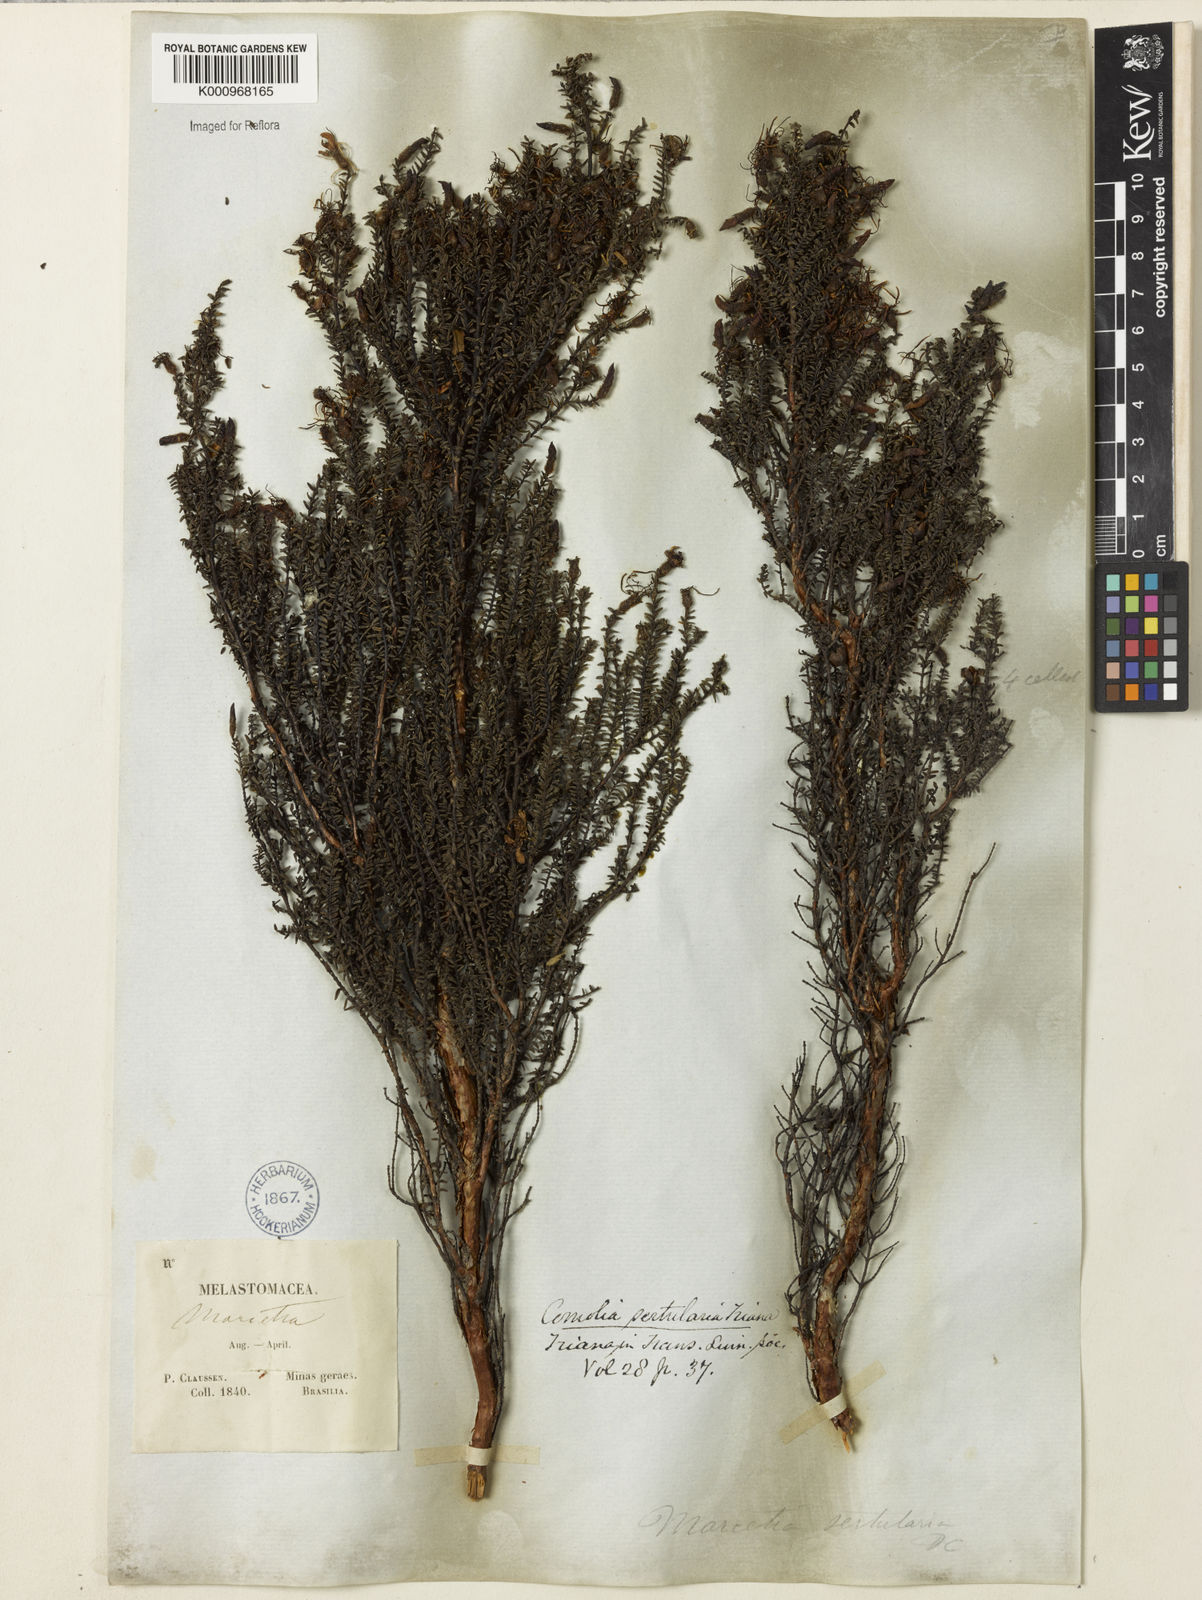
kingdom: Plantae
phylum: Tracheophyta
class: Magnoliopsida
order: Myrtales
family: Melastomataceae
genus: Fritzschia
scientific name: Fritzschia sertularia
